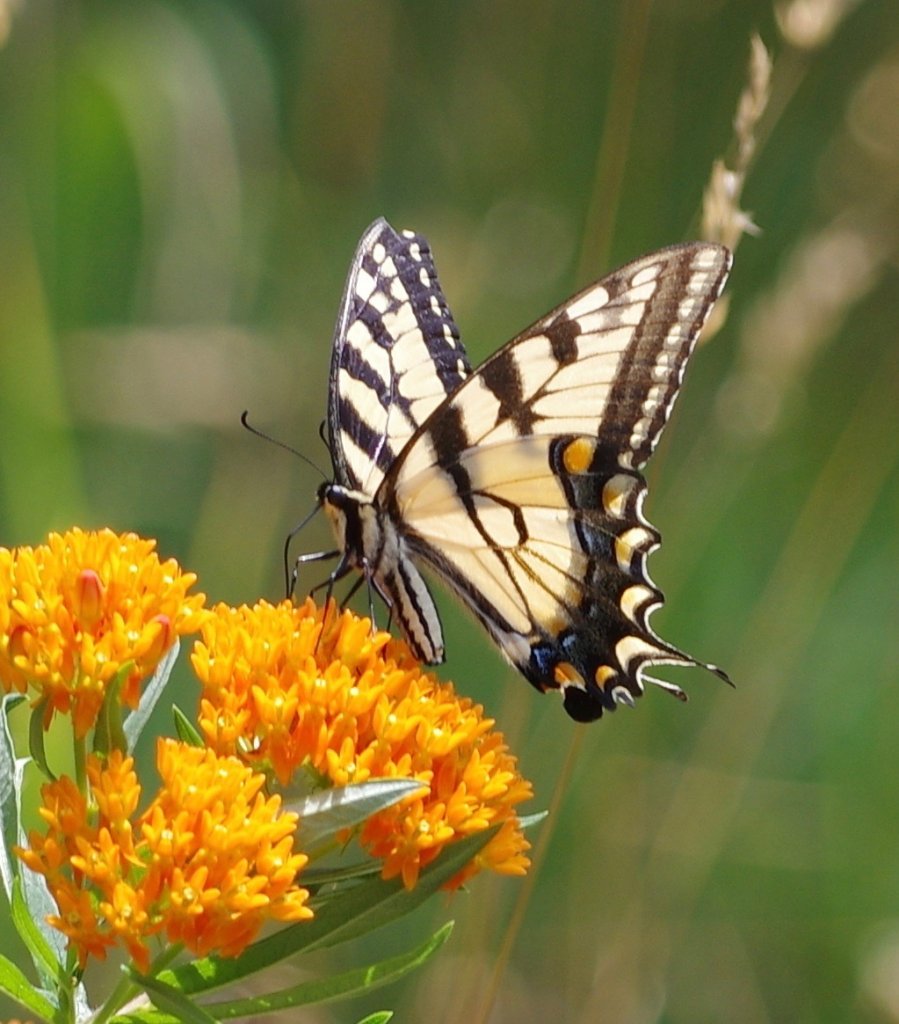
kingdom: Animalia
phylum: Arthropoda
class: Insecta
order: Lepidoptera
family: Papilionidae
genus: Pterourus
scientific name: Pterourus glaucus
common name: Eastern Tiger Swallowtail
